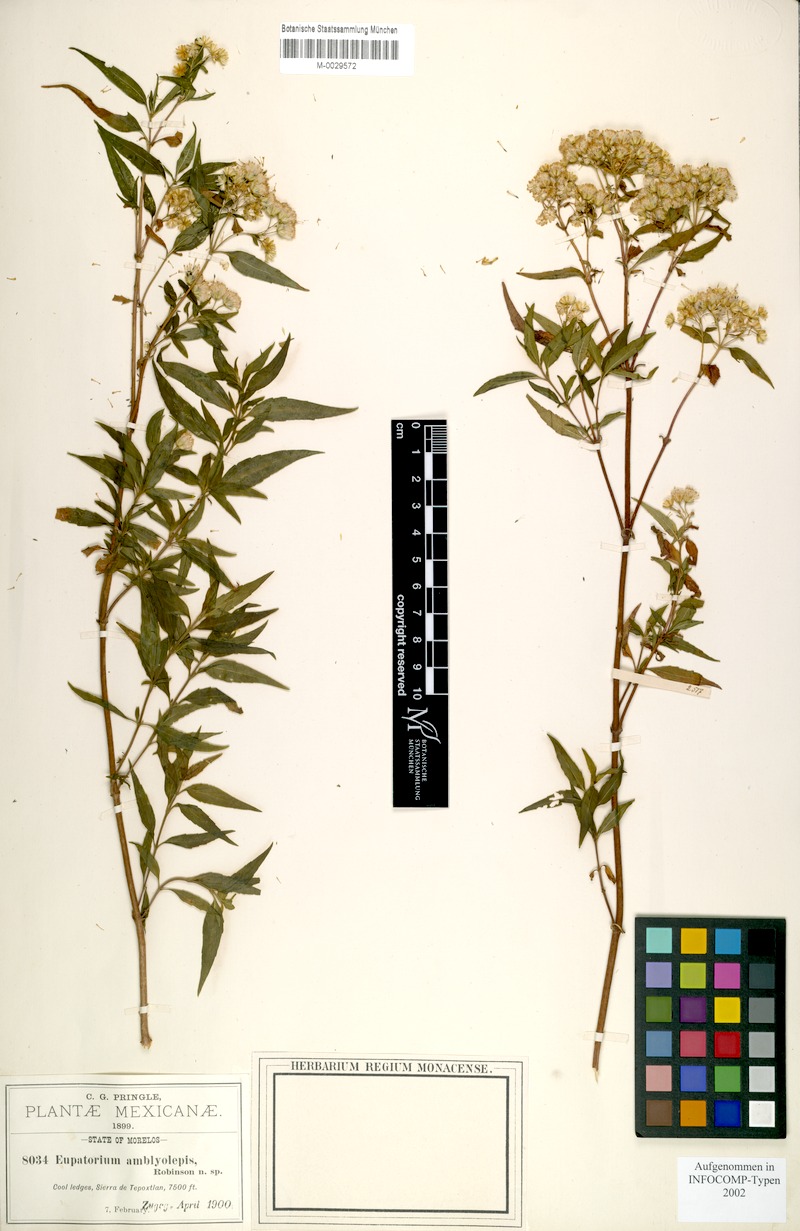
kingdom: Plantae
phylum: Tracheophyta
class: Magnoliopsida
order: Asterales
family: Asteraceae
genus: Ageratina
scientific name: Ageratina amblyolepis
